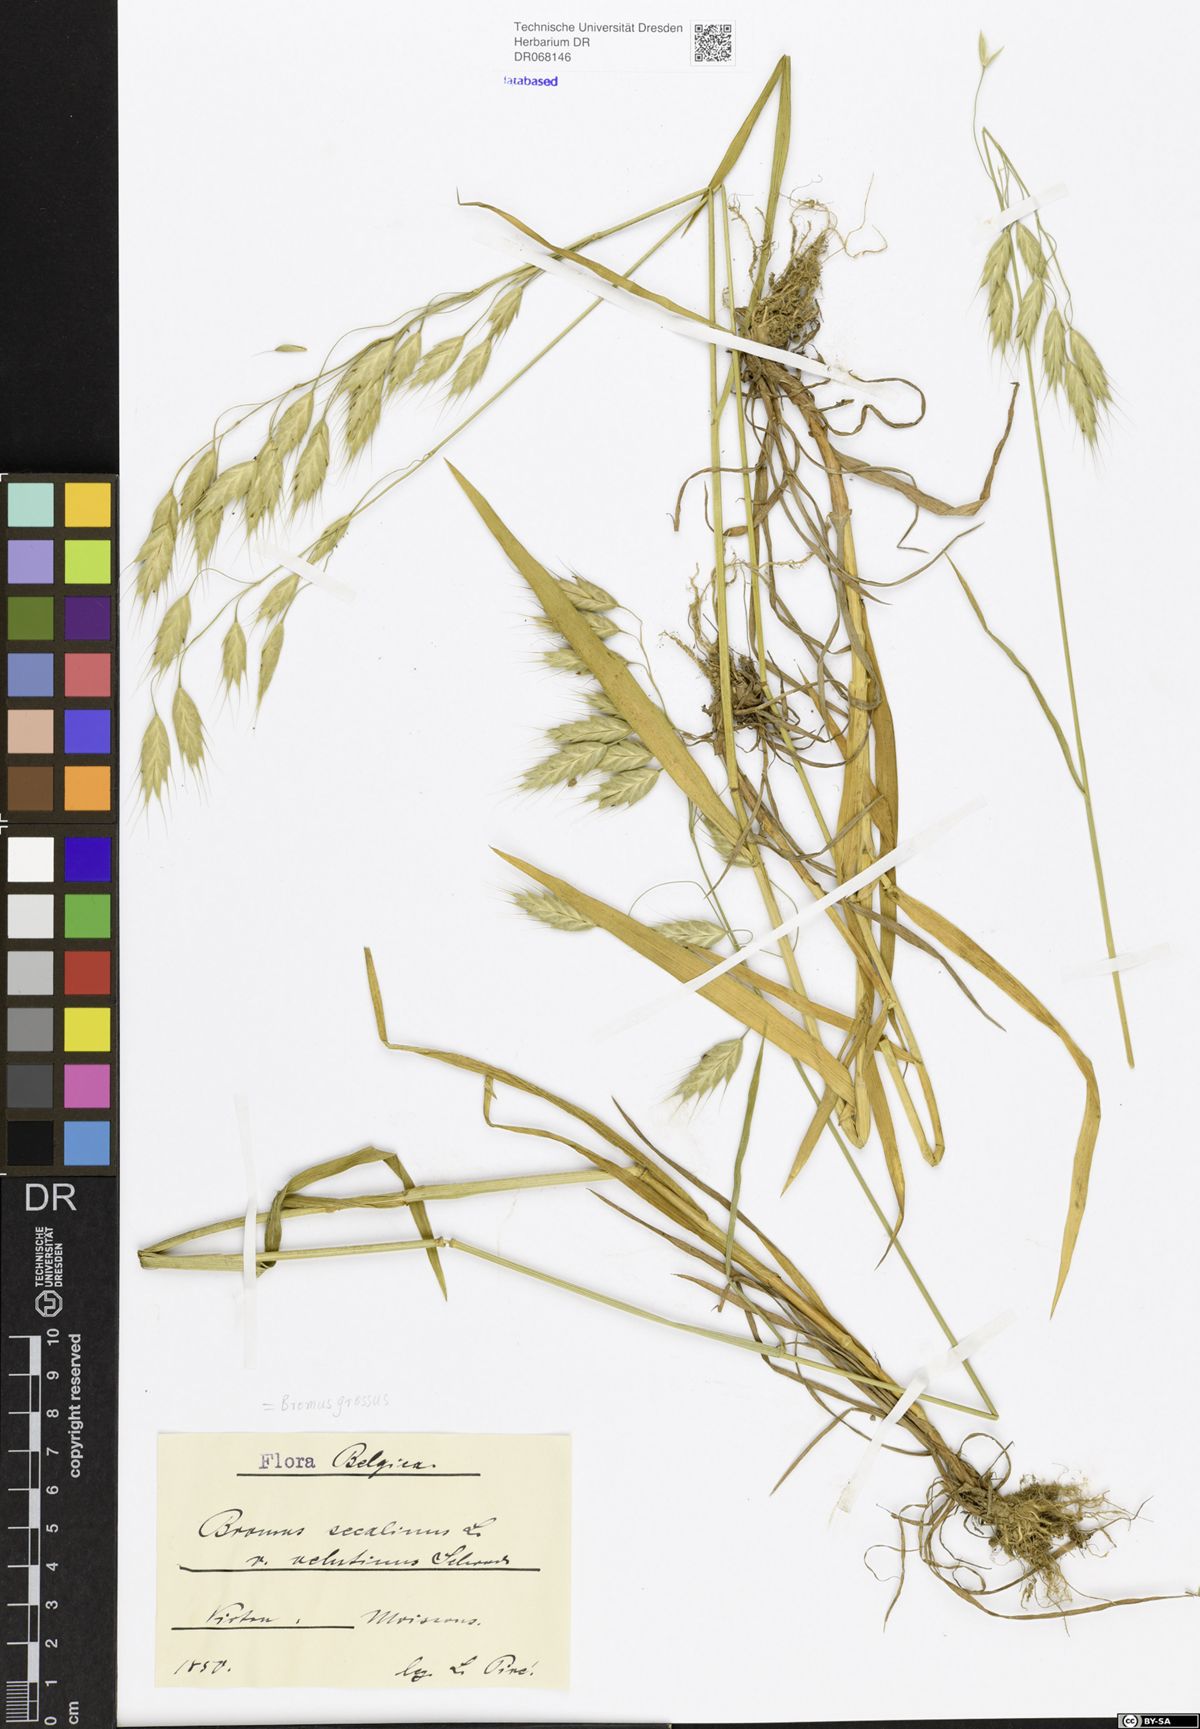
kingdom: Plantae
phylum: Tracheophyta
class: Liliopsida
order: Poales
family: Poaceae
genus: Bromus
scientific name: Bromus grossus
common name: Whiskered brome
